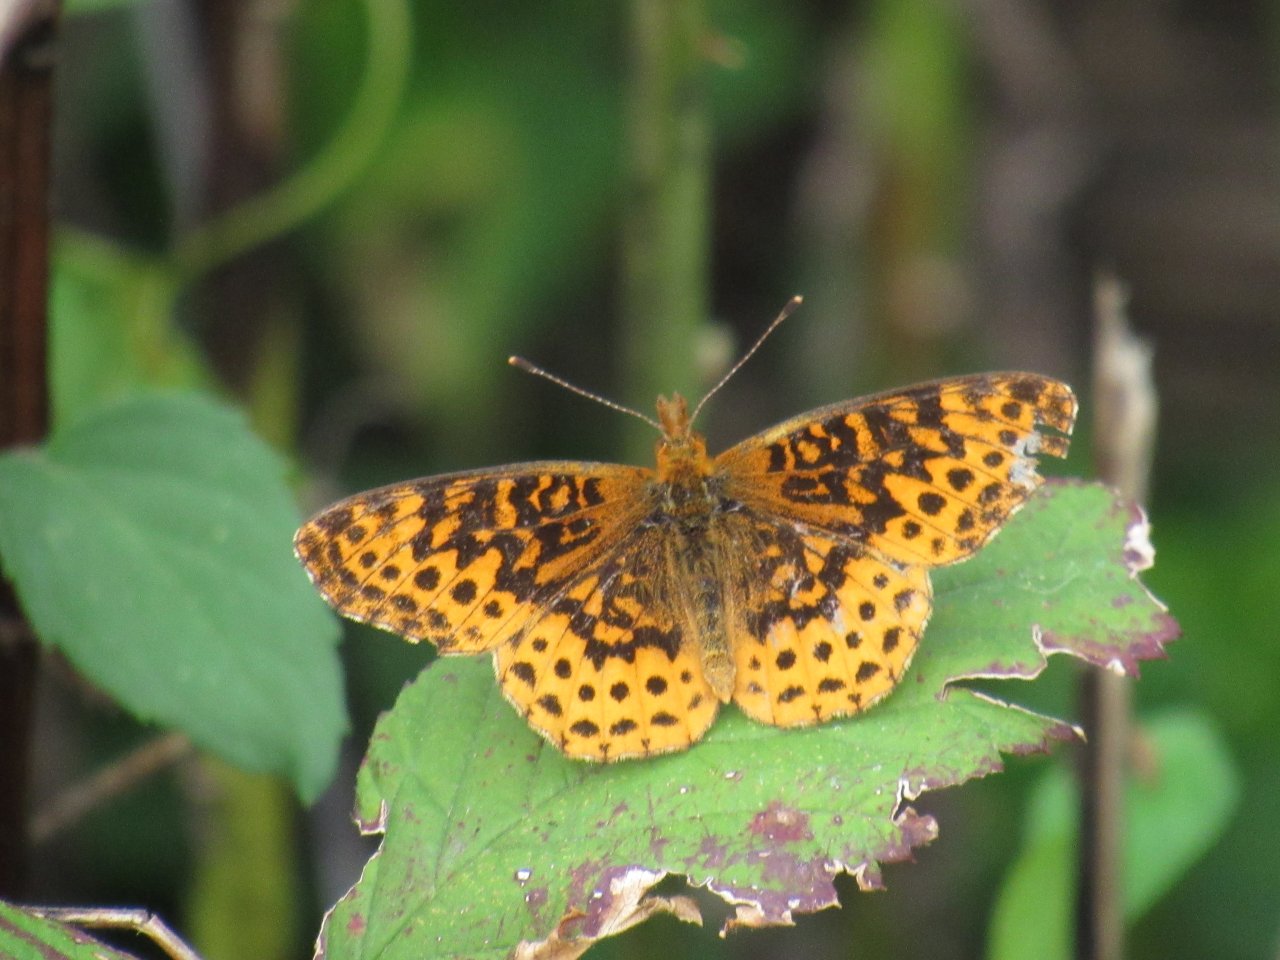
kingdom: Animalia
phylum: Arthropoda
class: Insecta
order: Lepidoptera
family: Nymphalidae
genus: Clossiana
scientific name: Clossiana toddi
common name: Meadow Fritillary
